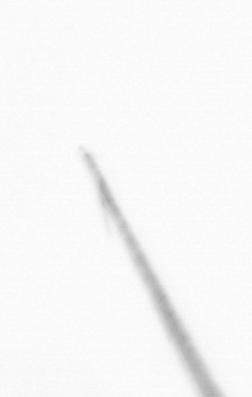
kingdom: Chromista
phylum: Ochrophyta
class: Bacillariophyceae
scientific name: Bacillariophyceae
